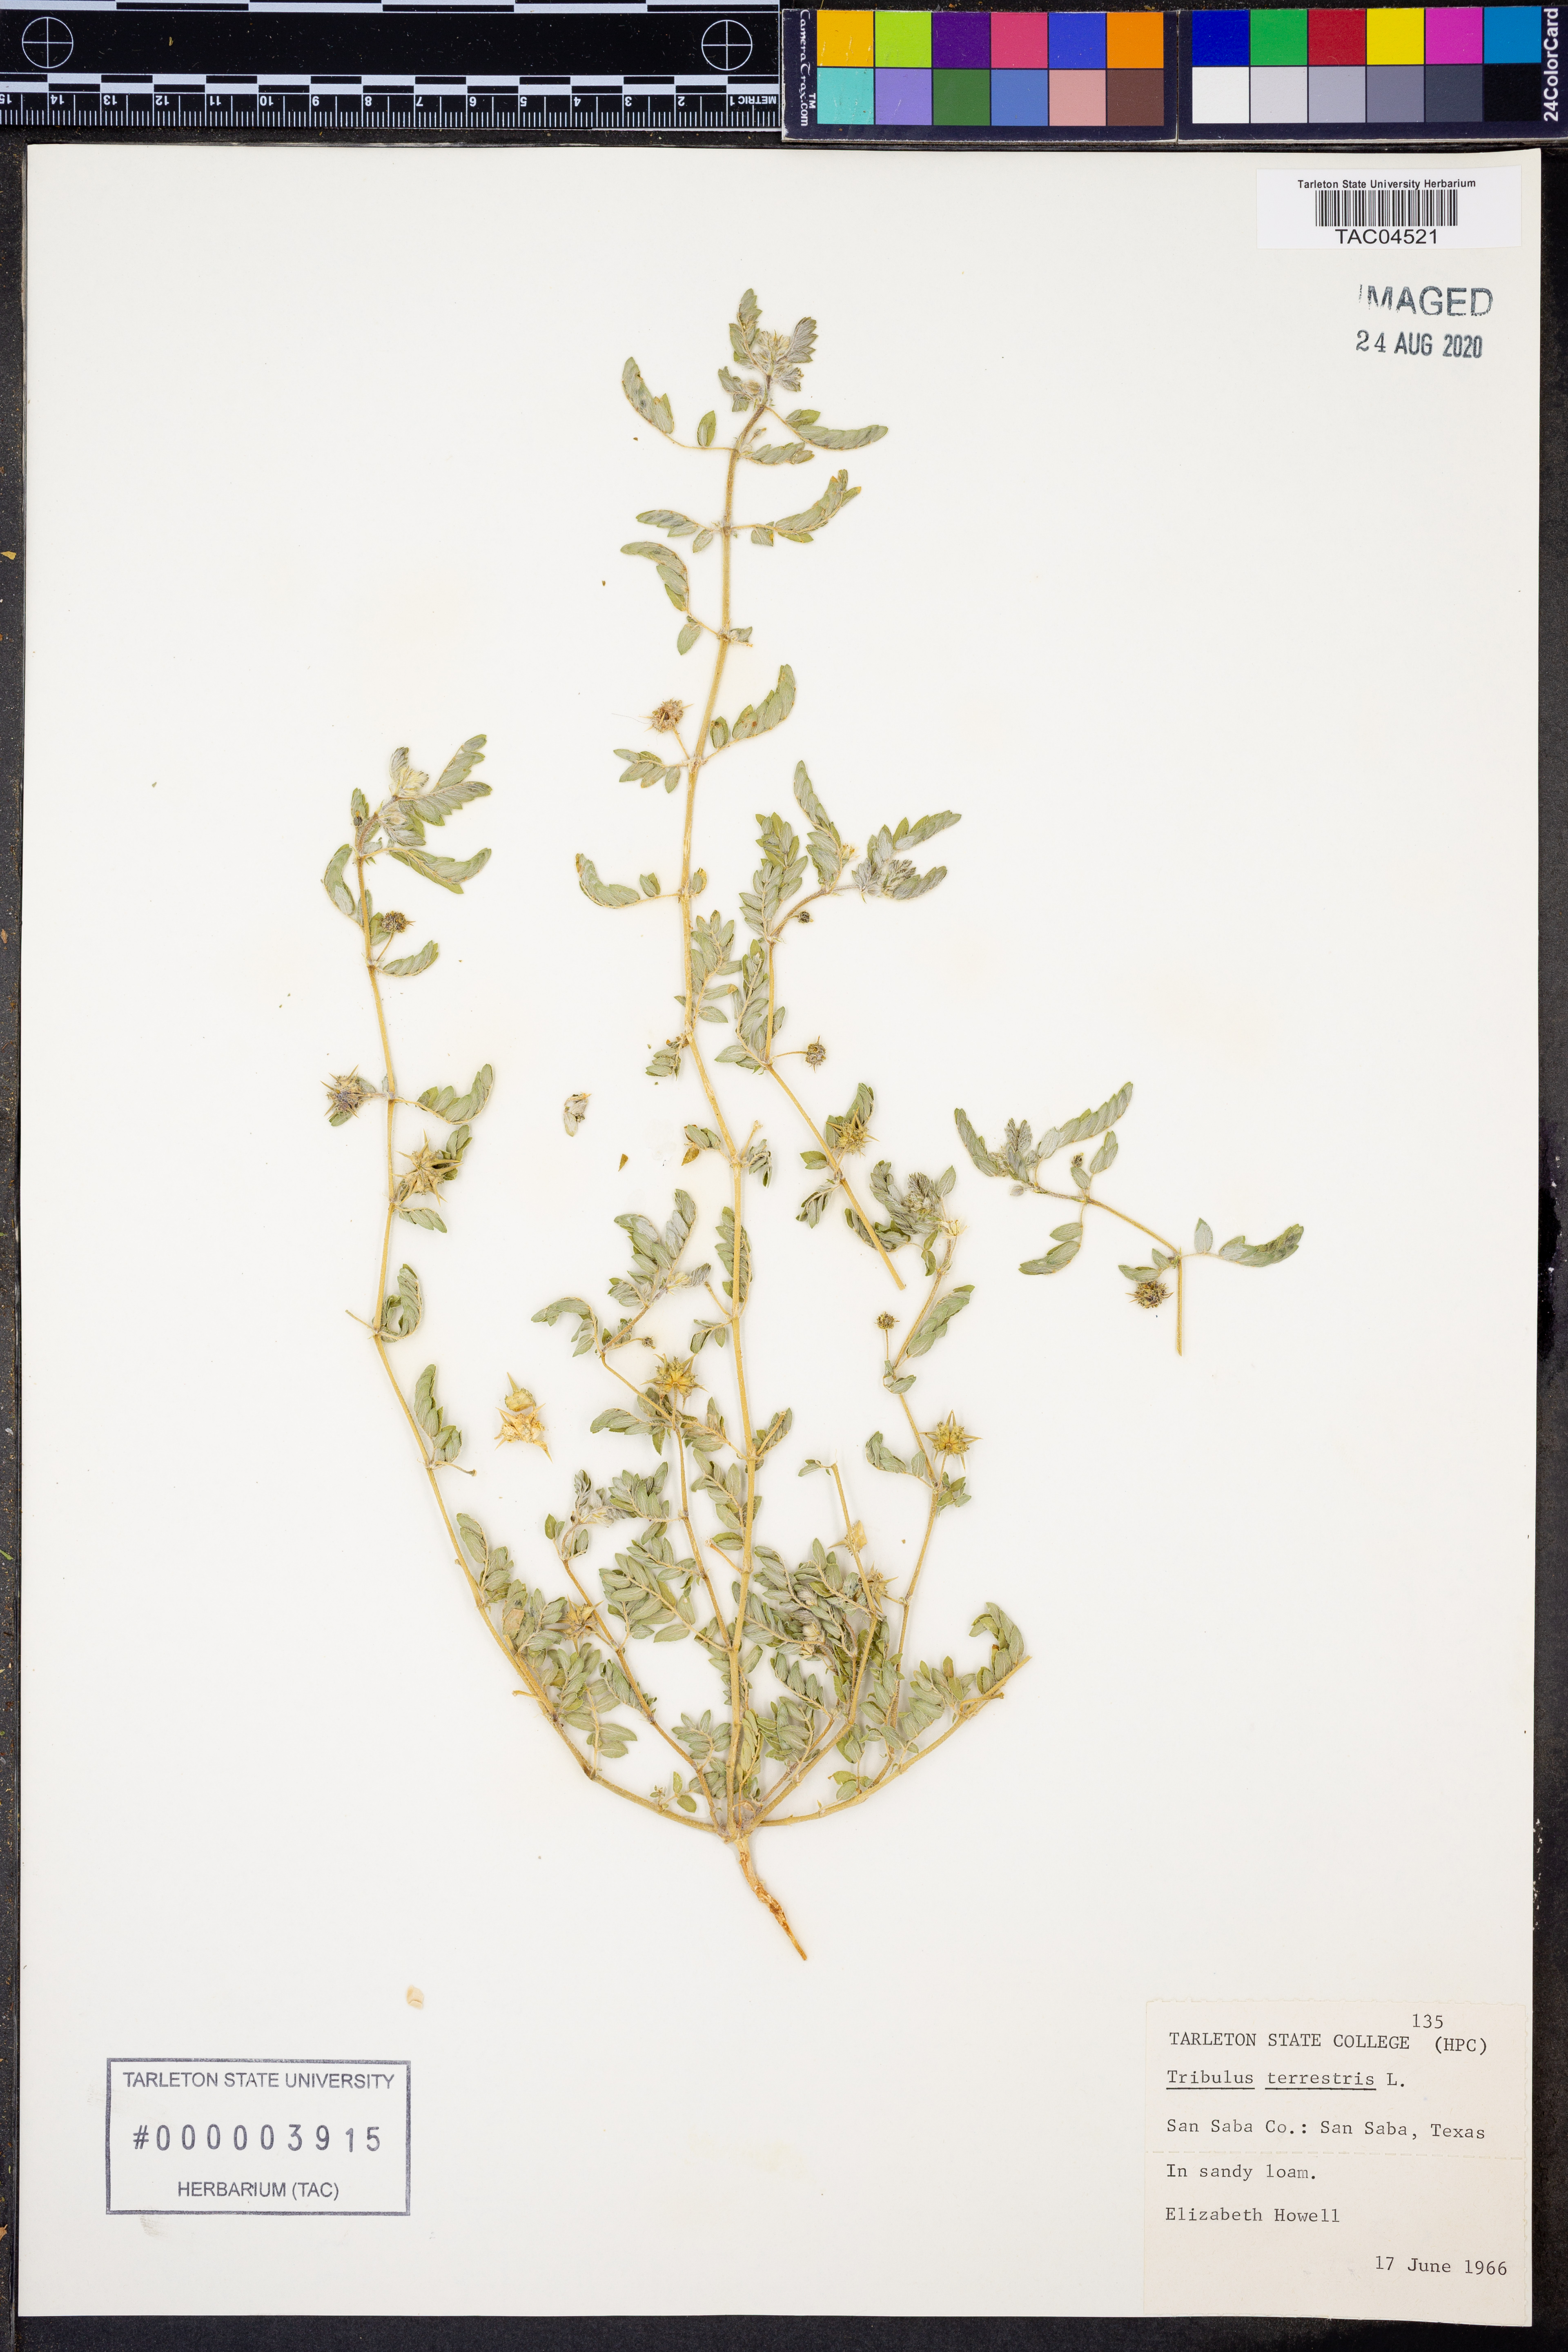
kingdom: Plantae
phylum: Tracheophyta
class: Magnoliopsida
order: Zygophyllales
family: Zygophyllaceae
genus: Tribulus
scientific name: Tribulus terrestris
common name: Puncturevine
